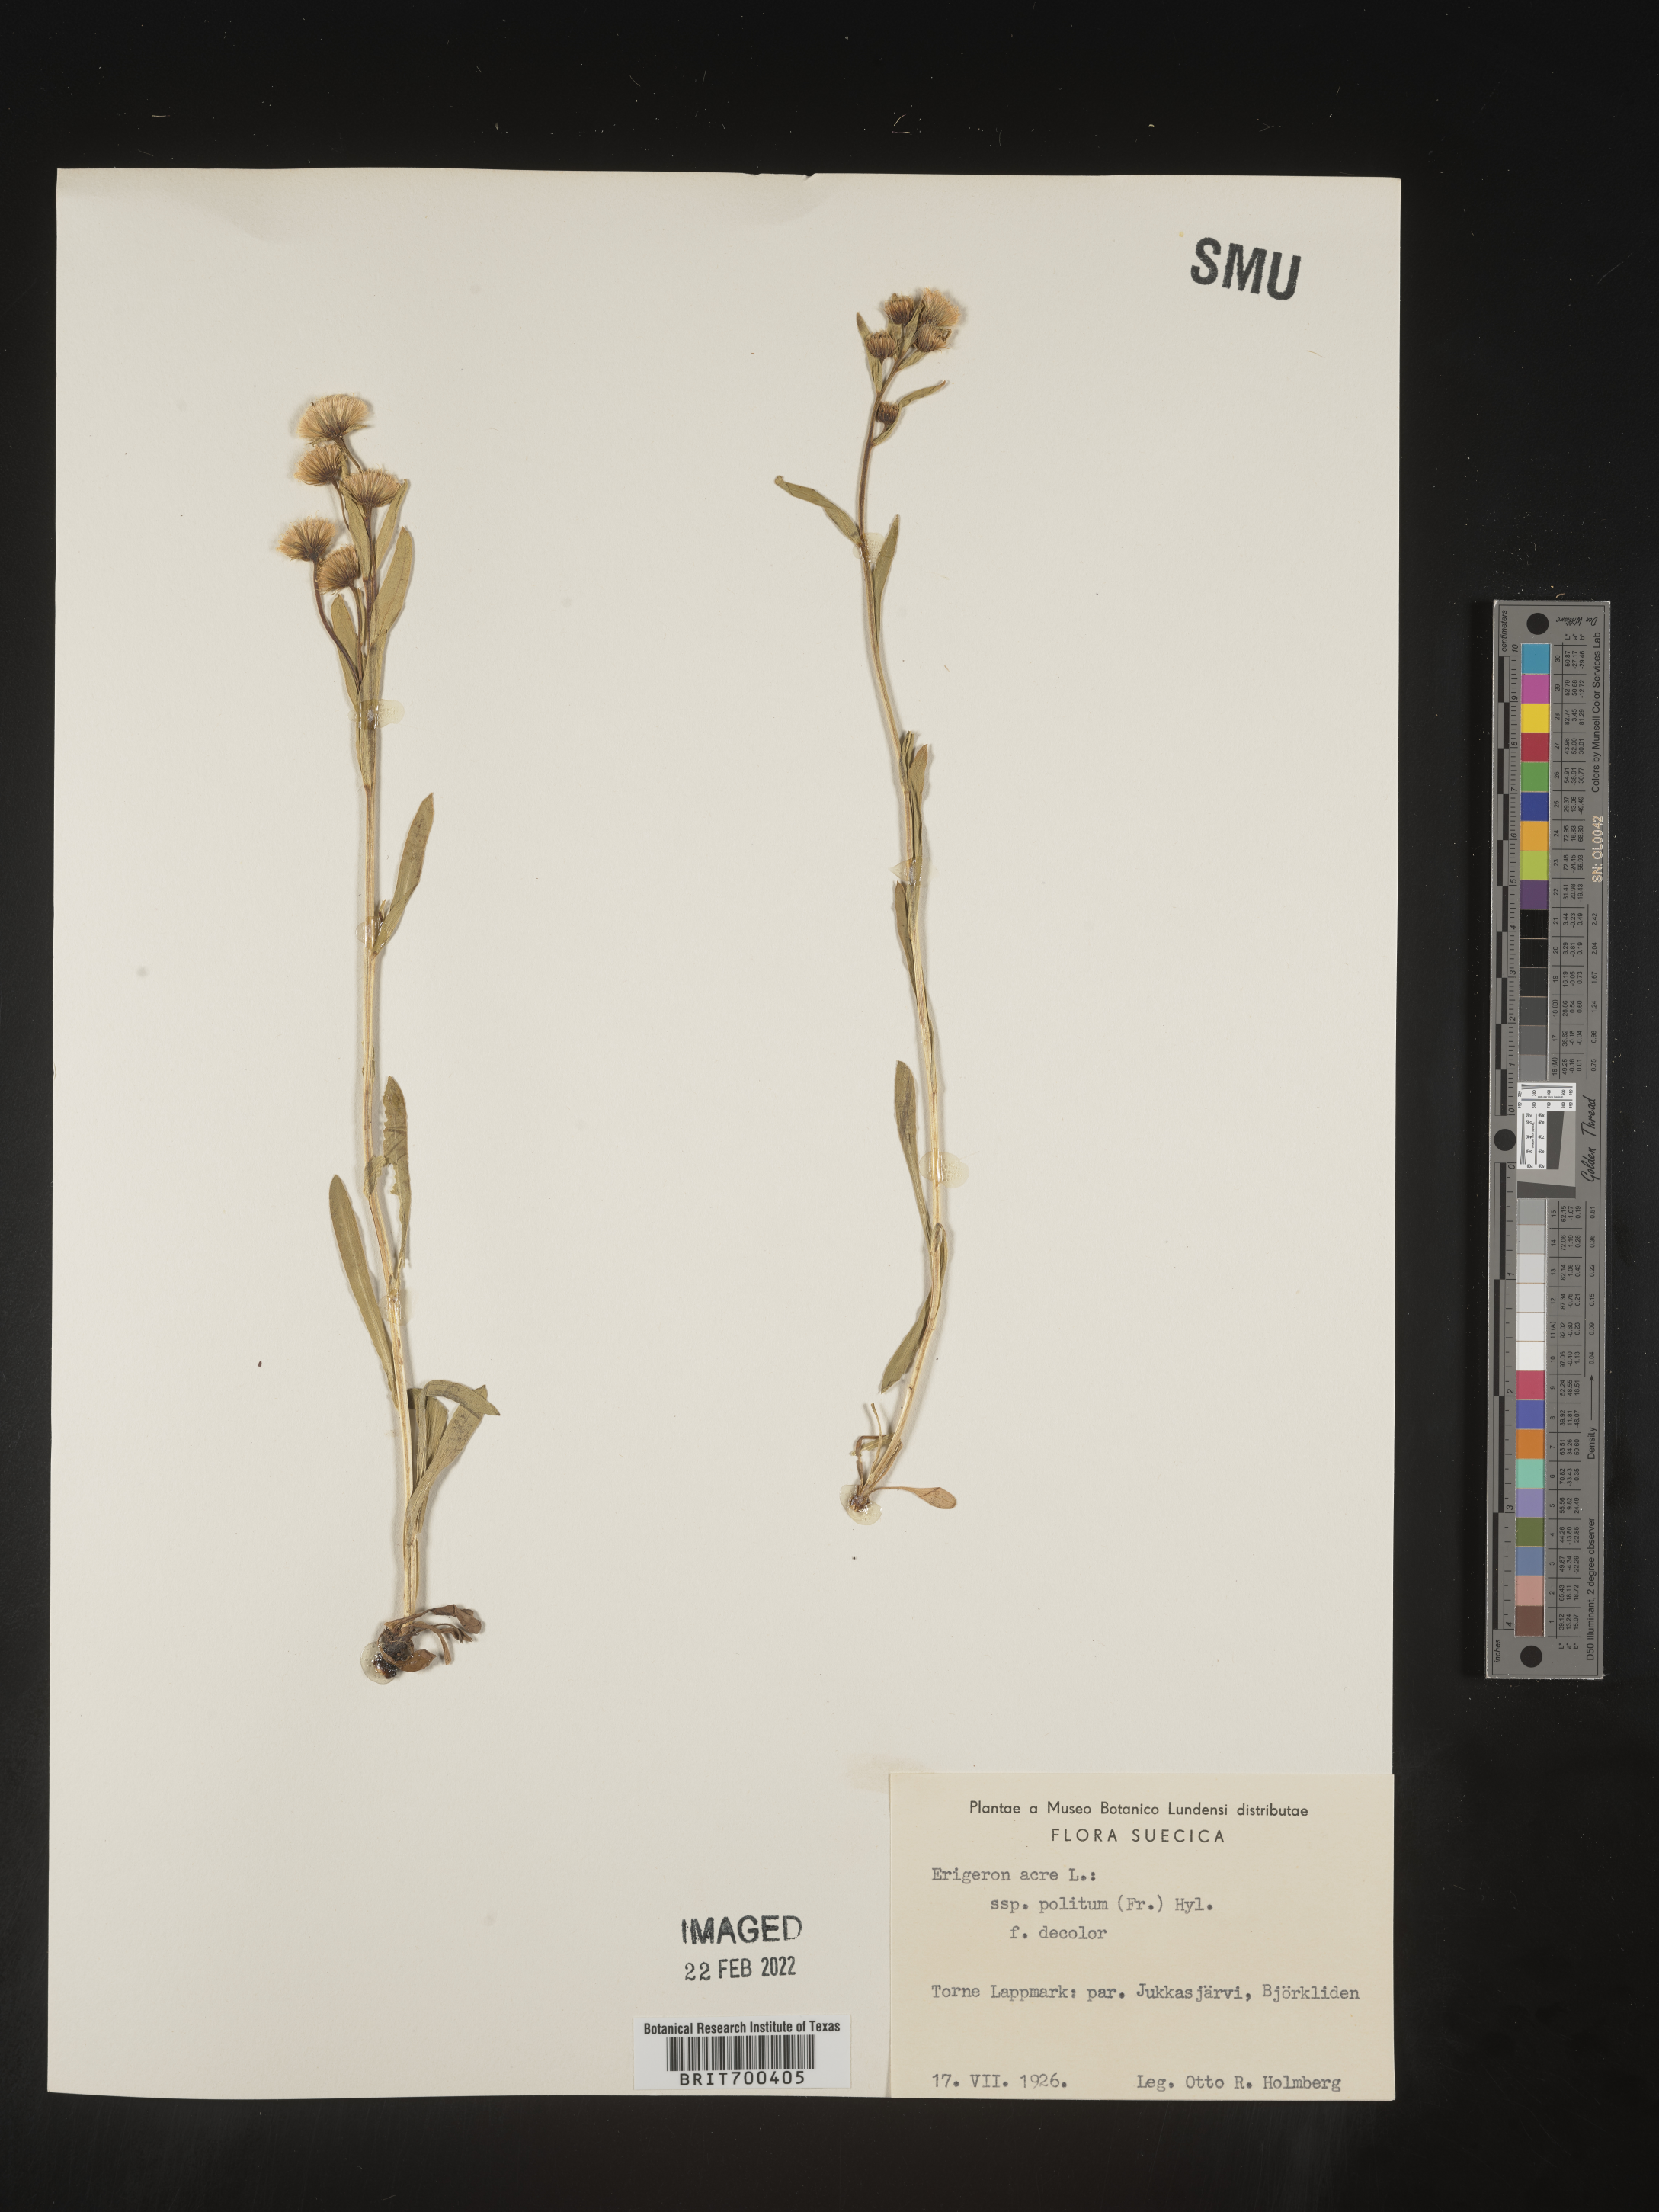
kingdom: Plantae
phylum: Tracheophyta
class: Magnoliopsida
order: Asterales
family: Asteraceae
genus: Erigeron
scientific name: Erigeron
